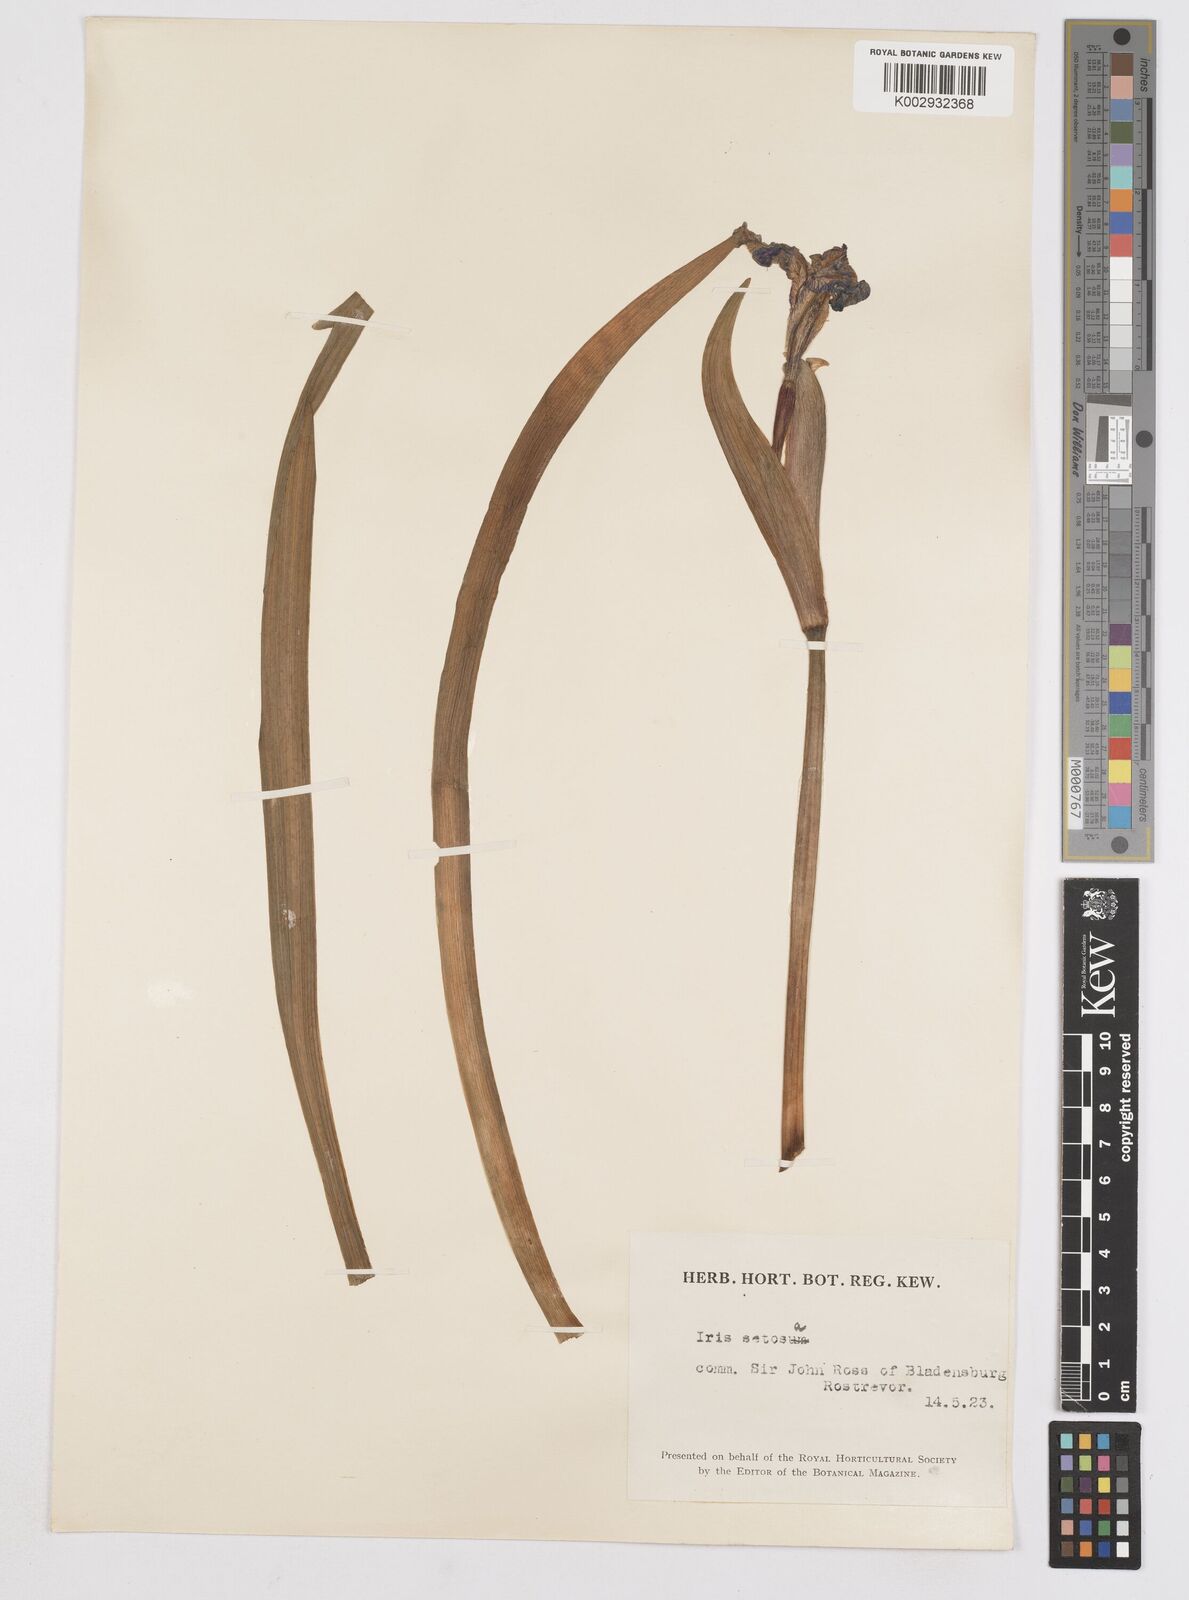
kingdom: Plantae
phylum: Tracheophyta
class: Liliopsida
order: Asparagales
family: Iridaceae
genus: Iris
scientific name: Iris setosa
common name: Arctic blue flag
